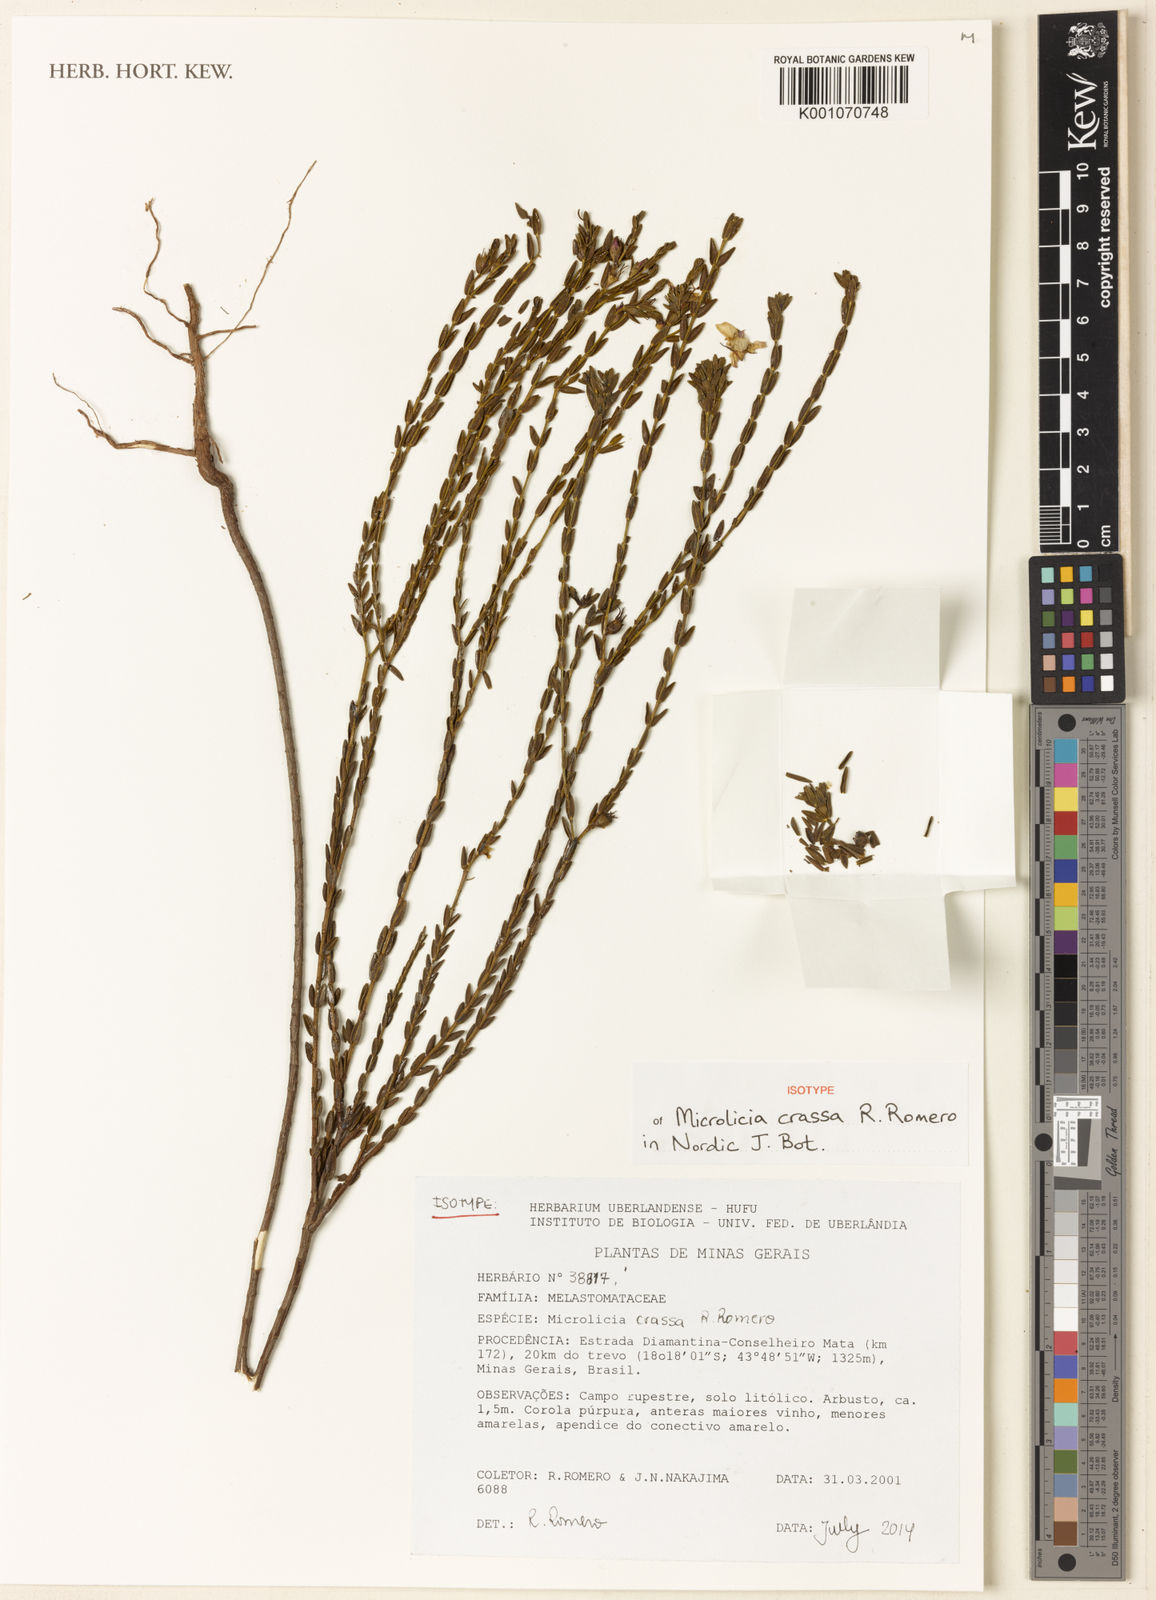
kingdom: Plantae
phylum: Tracheophyta
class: Magnoliopsida
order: Myrtales
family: Melastomataceae
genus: Microlicia
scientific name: Microlicia crassa
